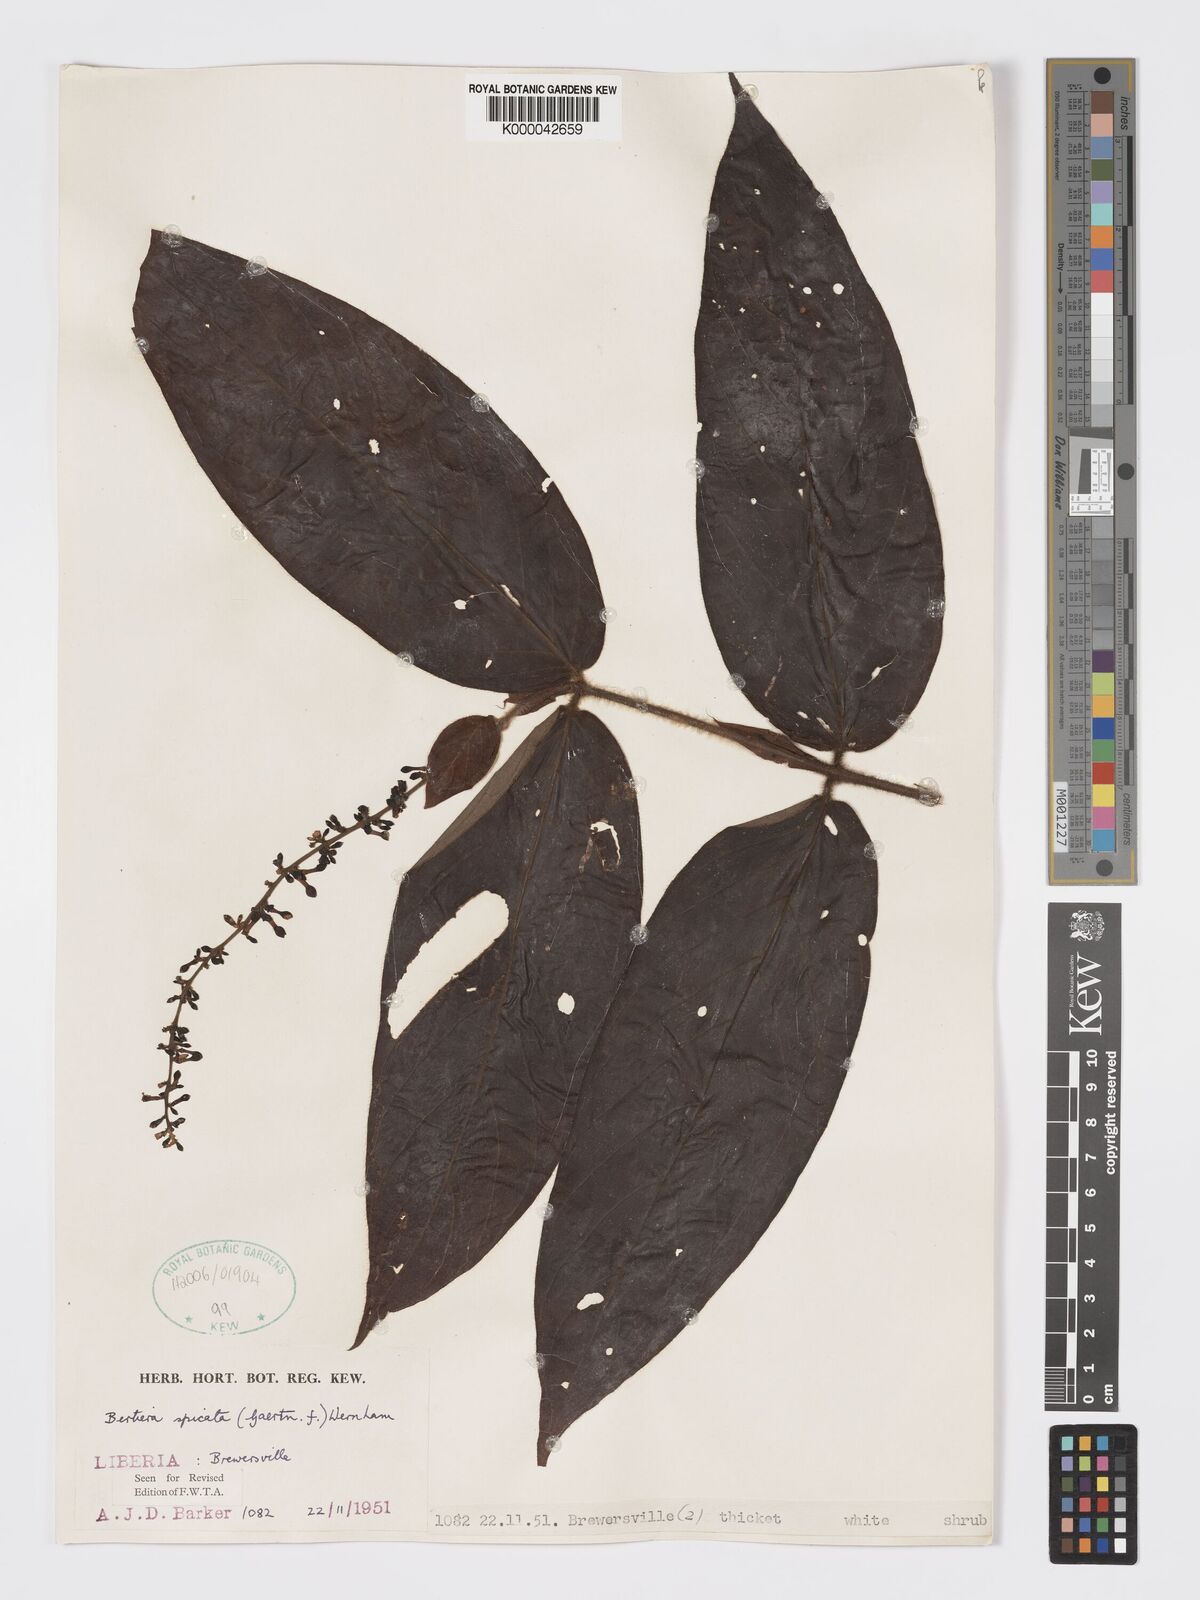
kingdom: Plantae
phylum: Tracheophyta
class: Magnoliopsida
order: Gentianales
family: Rubiaceae
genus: Bertiera
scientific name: Bertiera
